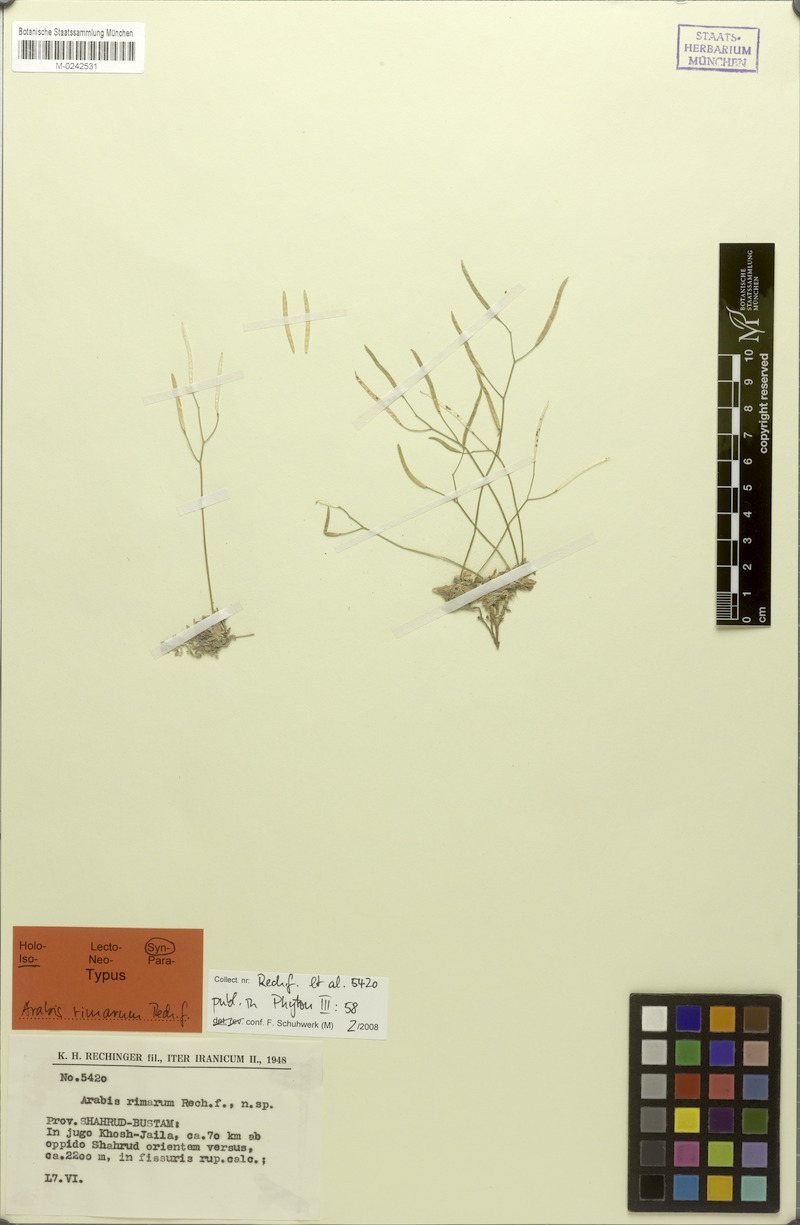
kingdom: Plantae
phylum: Tracheophyta
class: Magnoliopsida
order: Brassicales
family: Brassicaceae
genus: Draba
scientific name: Draba aucheri
